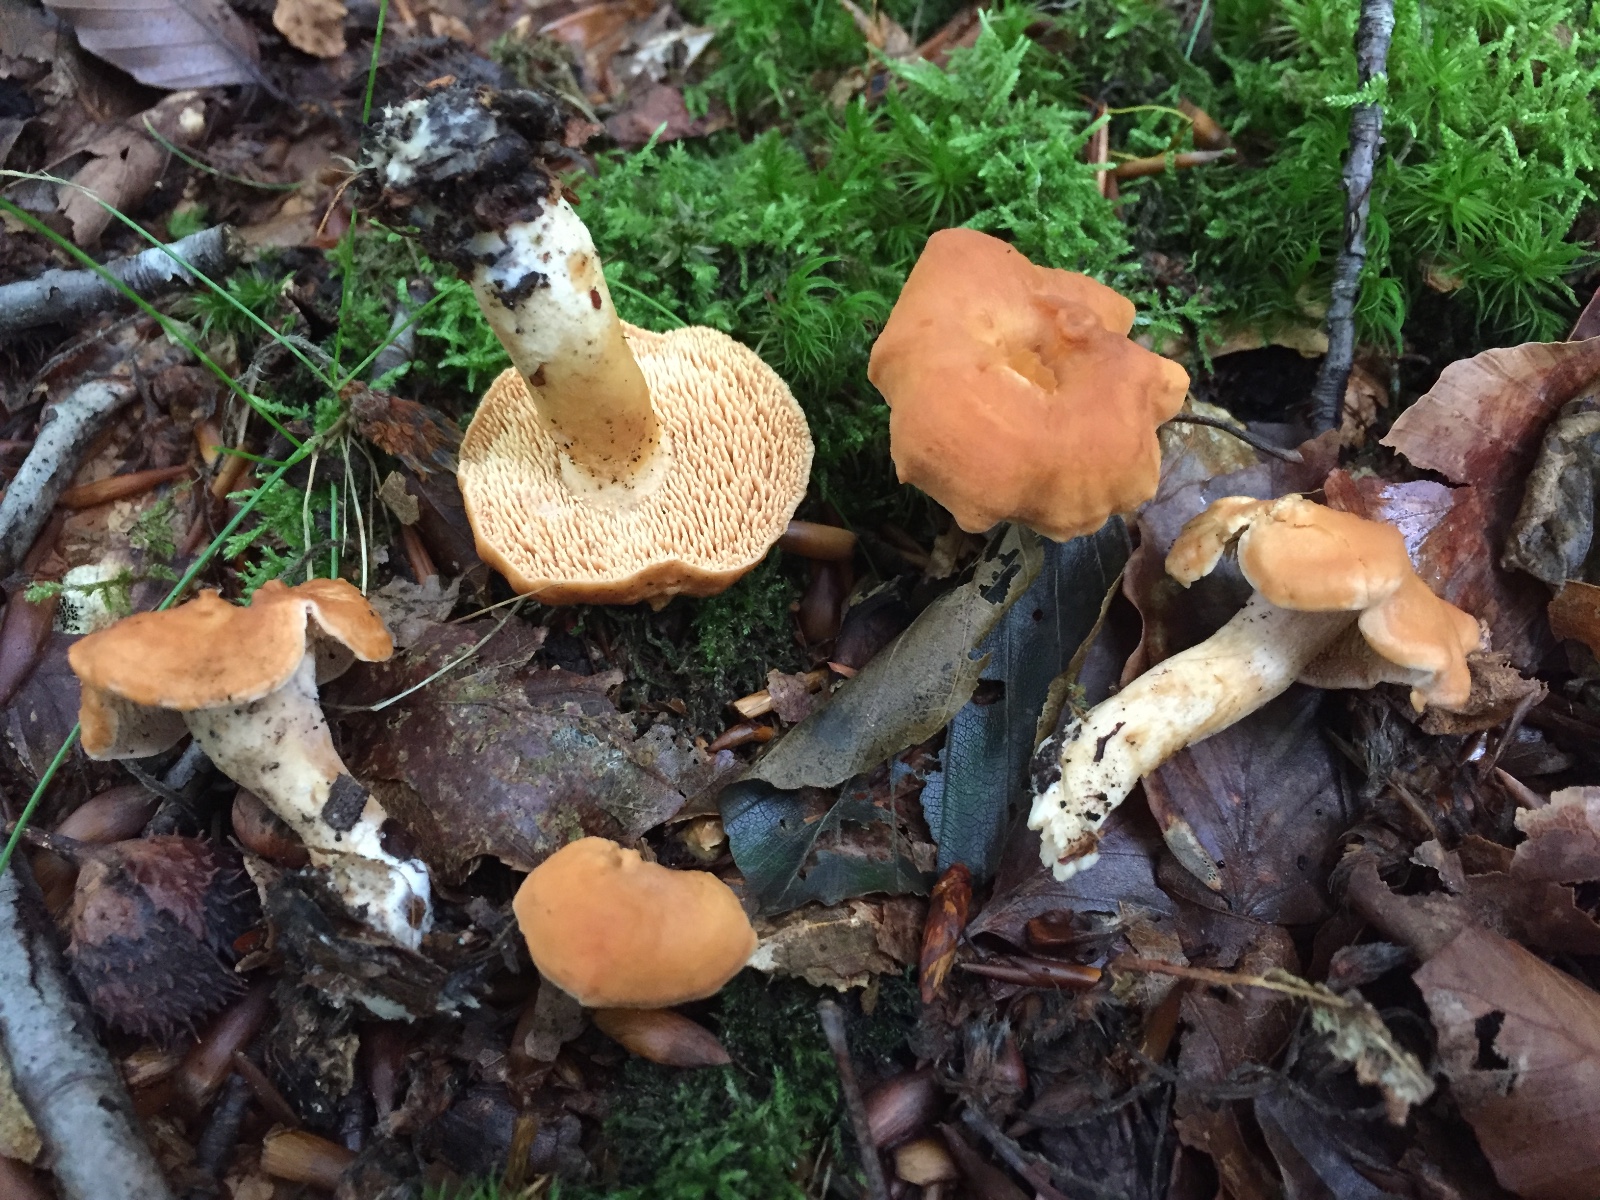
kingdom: Fungi
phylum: Basidiomycota
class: Agaricomycetes
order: Cantharellales
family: Hydnaceae
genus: Hydnum
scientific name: Hydnum umbilicatum
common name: navle-pigsvamp
